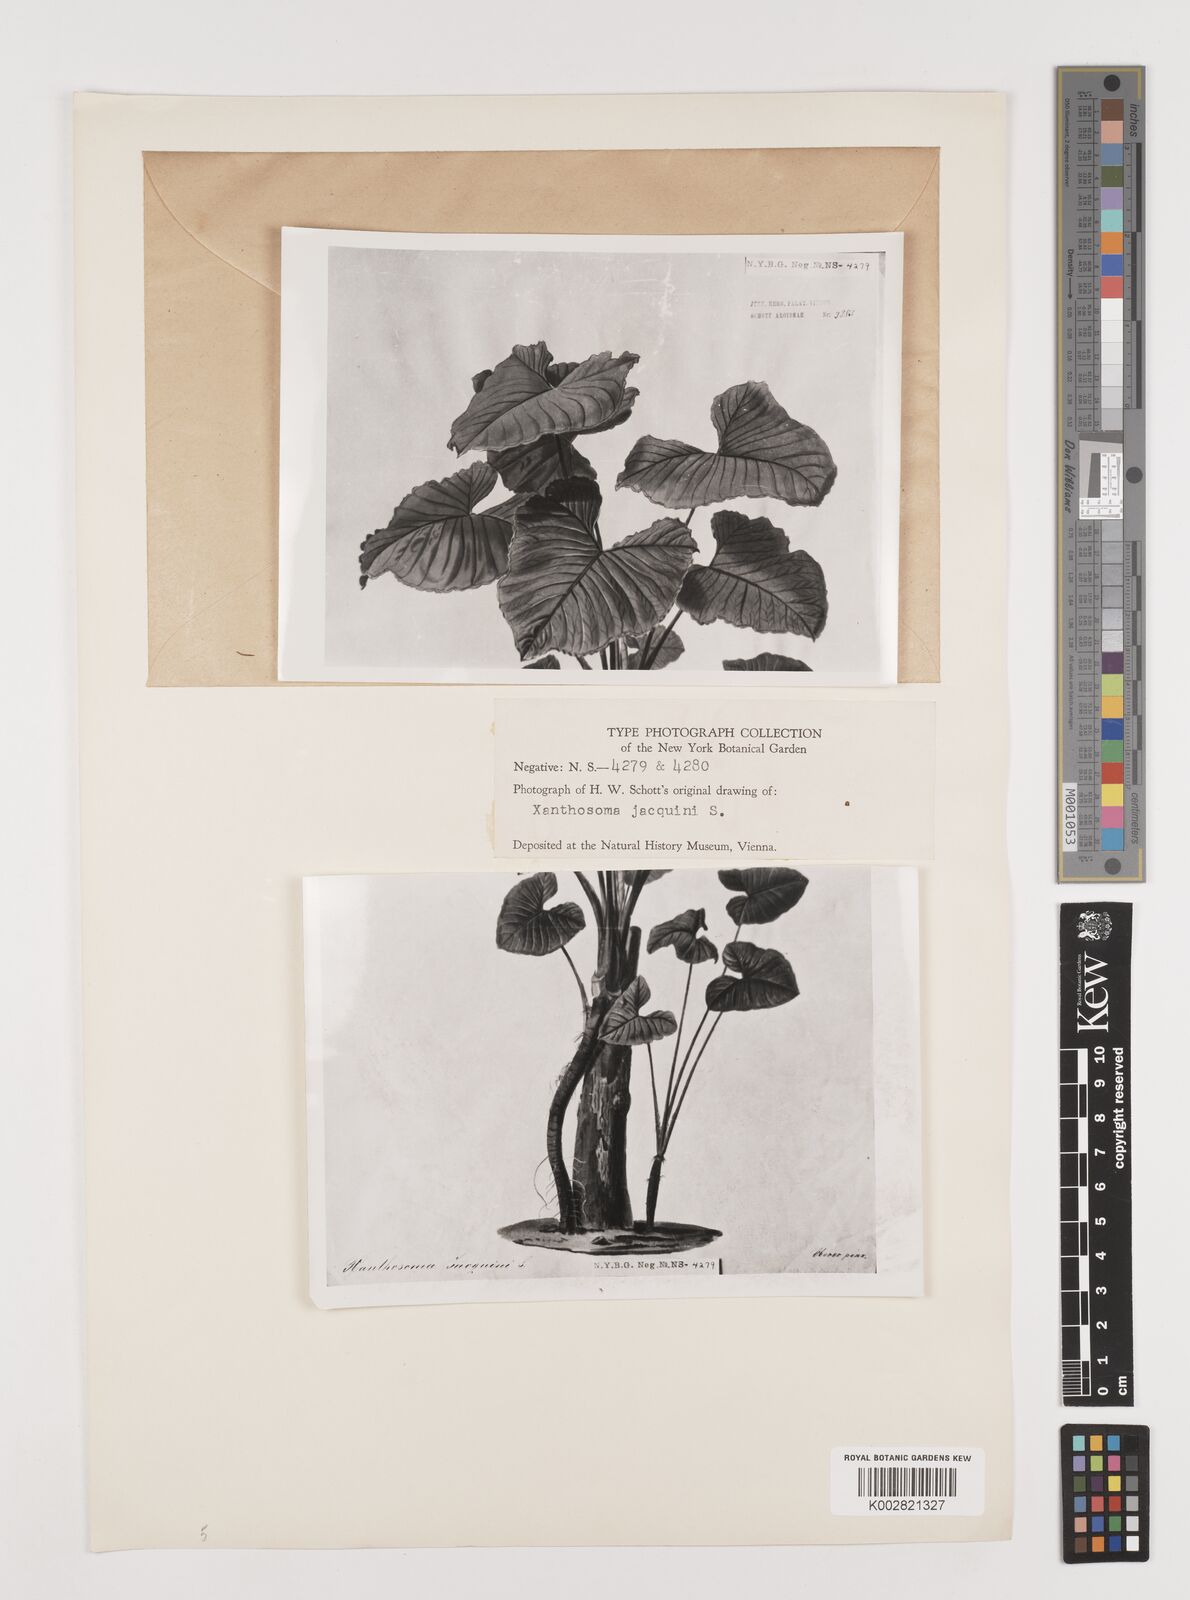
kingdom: Plantae
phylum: Tracheophyta
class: Liliopsida
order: Alismatales
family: Araceae
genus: Xanthosoma
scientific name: Xanthosoma undipes
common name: Tall elephant's ear
